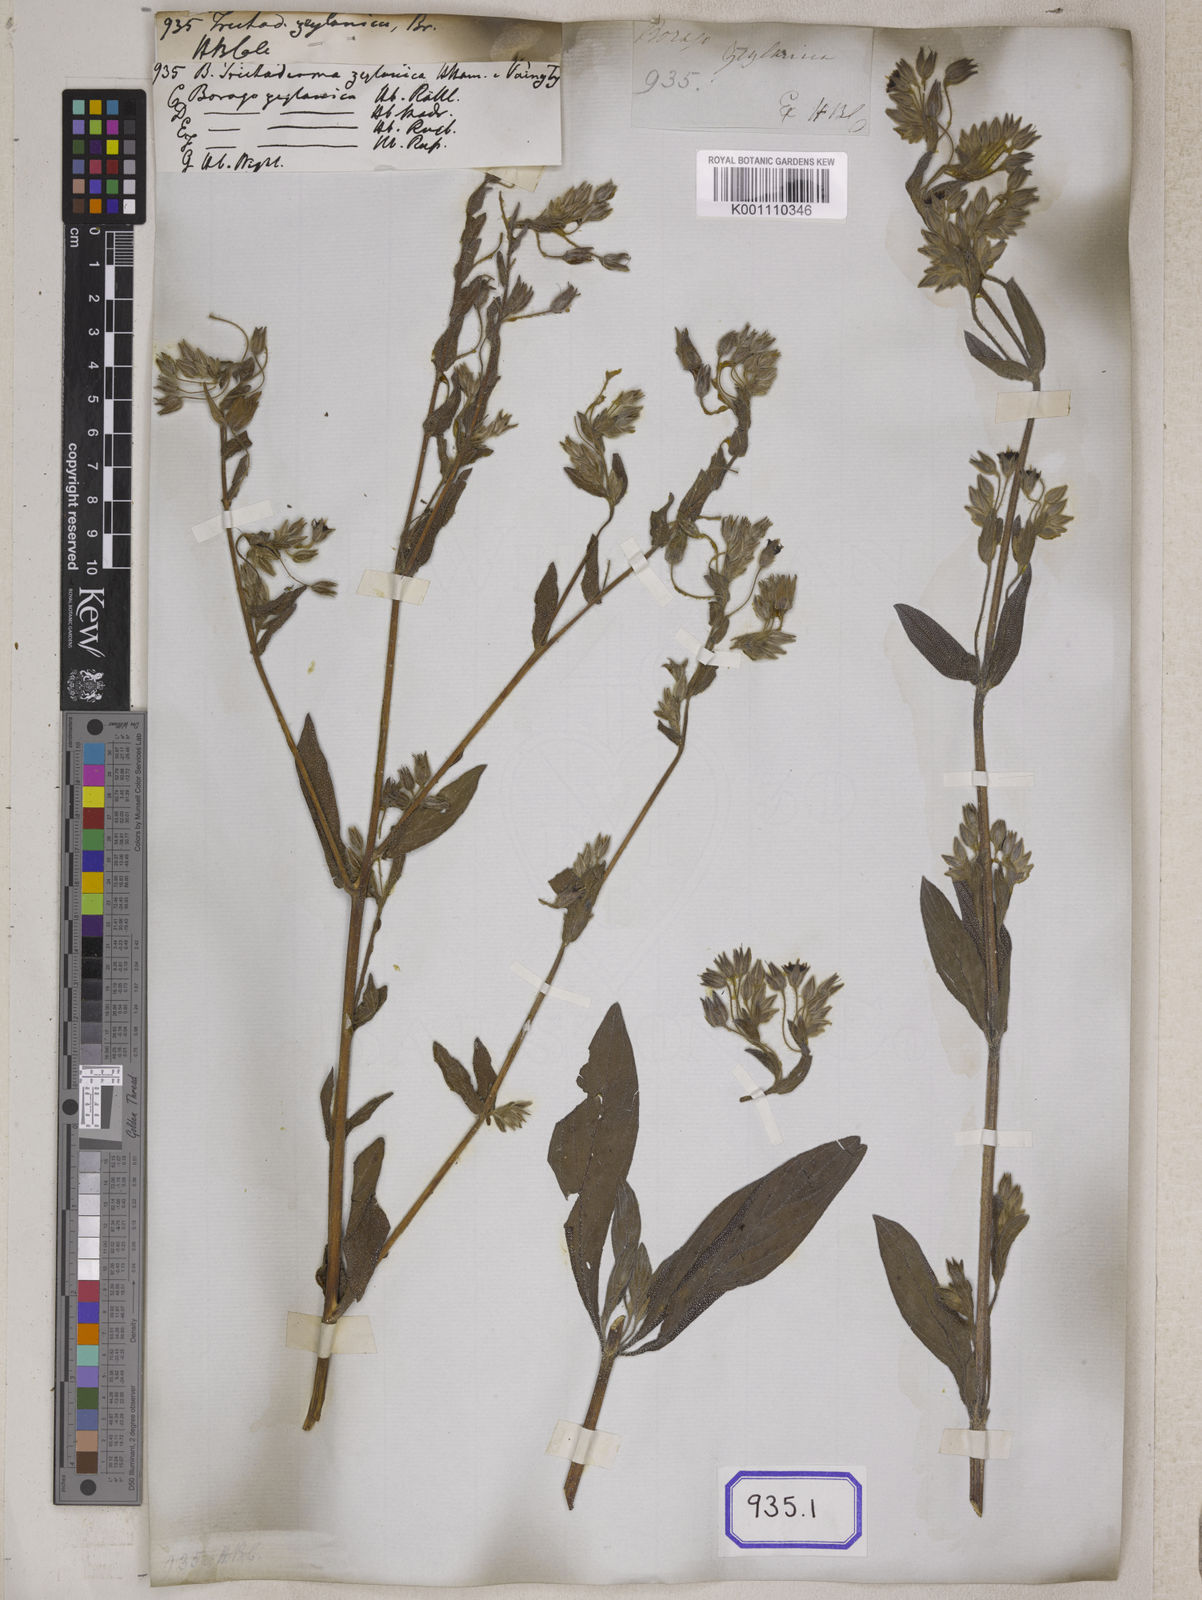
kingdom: Plantae
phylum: Tracheophyta
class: Magnoliopsida
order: Boraginales
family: Boraginaceae
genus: Trichodesma
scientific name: Trichodesma zeylanicum
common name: Camelbush
